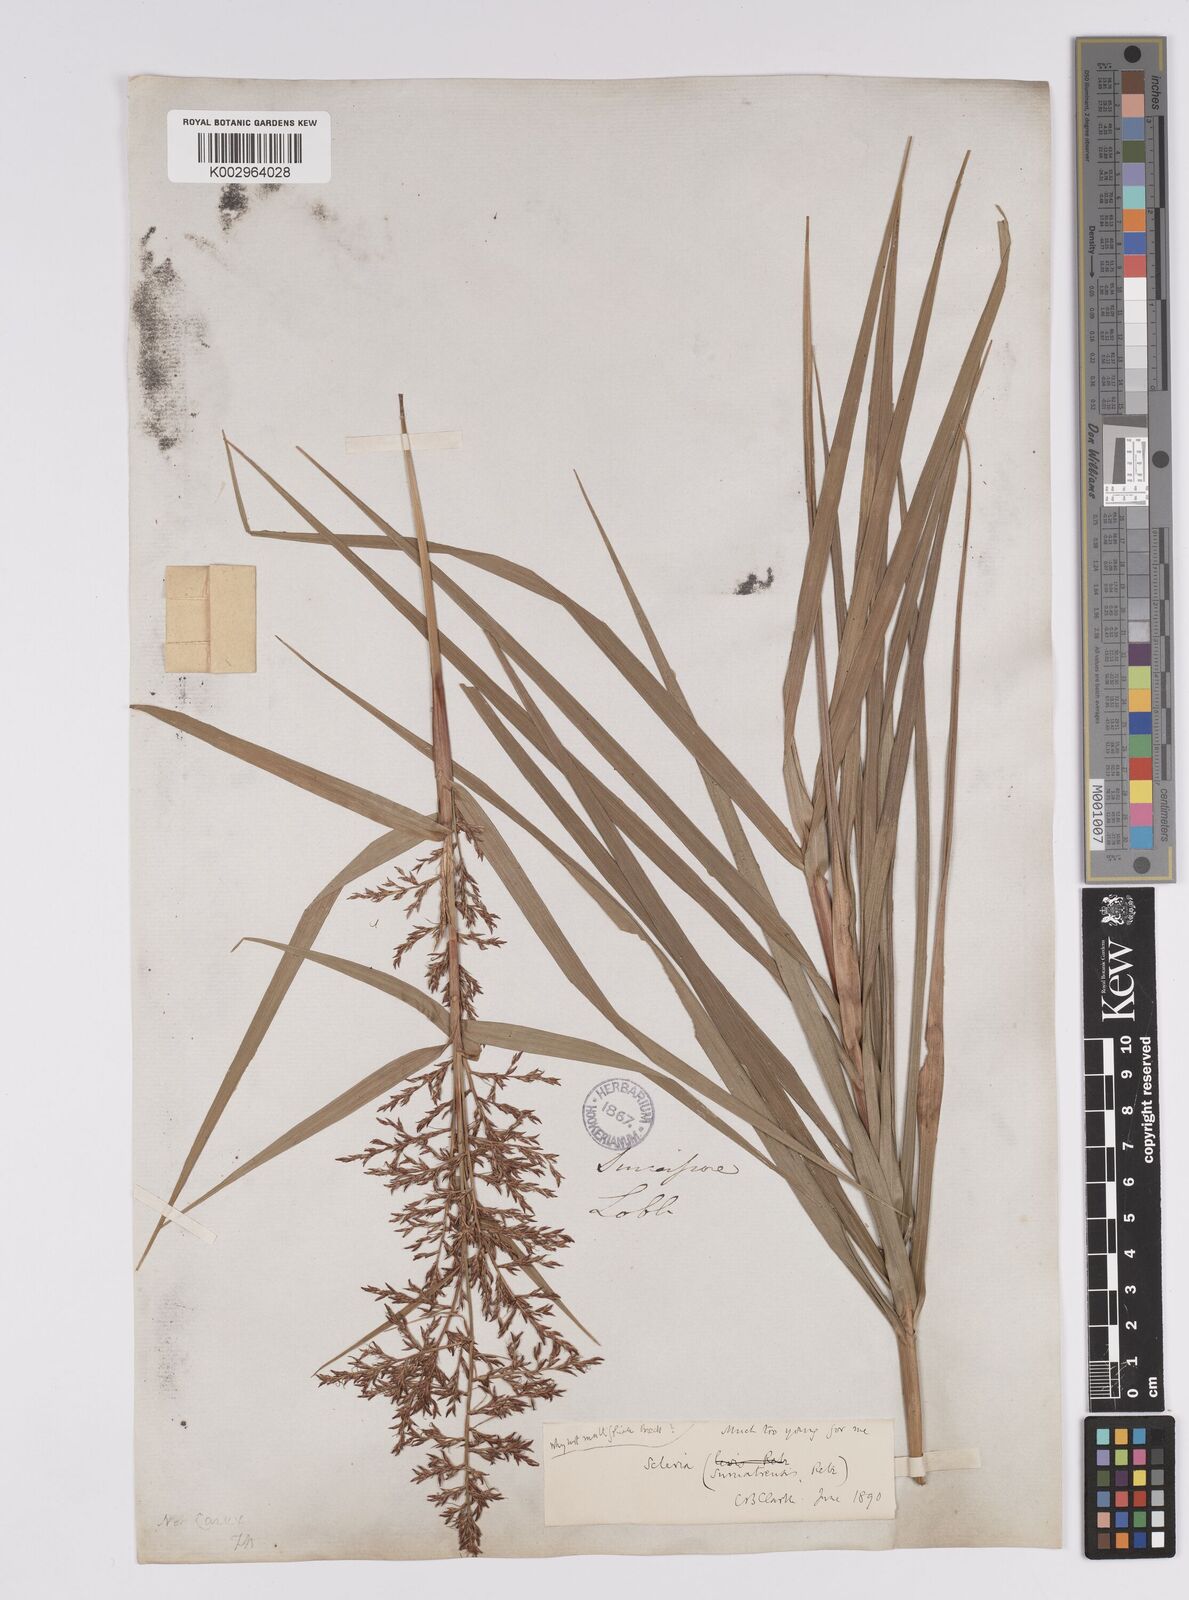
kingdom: Plantae
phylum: Tracheophyta
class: Liliopsida
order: Poales
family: Cyperaceae
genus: Scleria
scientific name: Scleria sumatrensis
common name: Sumatran scleria
